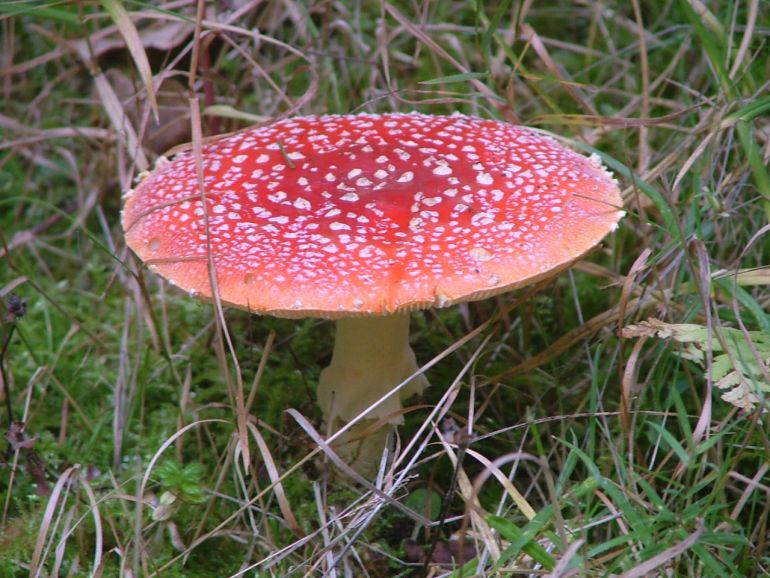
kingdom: Fungi
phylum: Basidiomycota
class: Agaricomycetes
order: Agaricales
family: Amanitaceae
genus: Amanita
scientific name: Amanita muscaria
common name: rød fluesvamp
